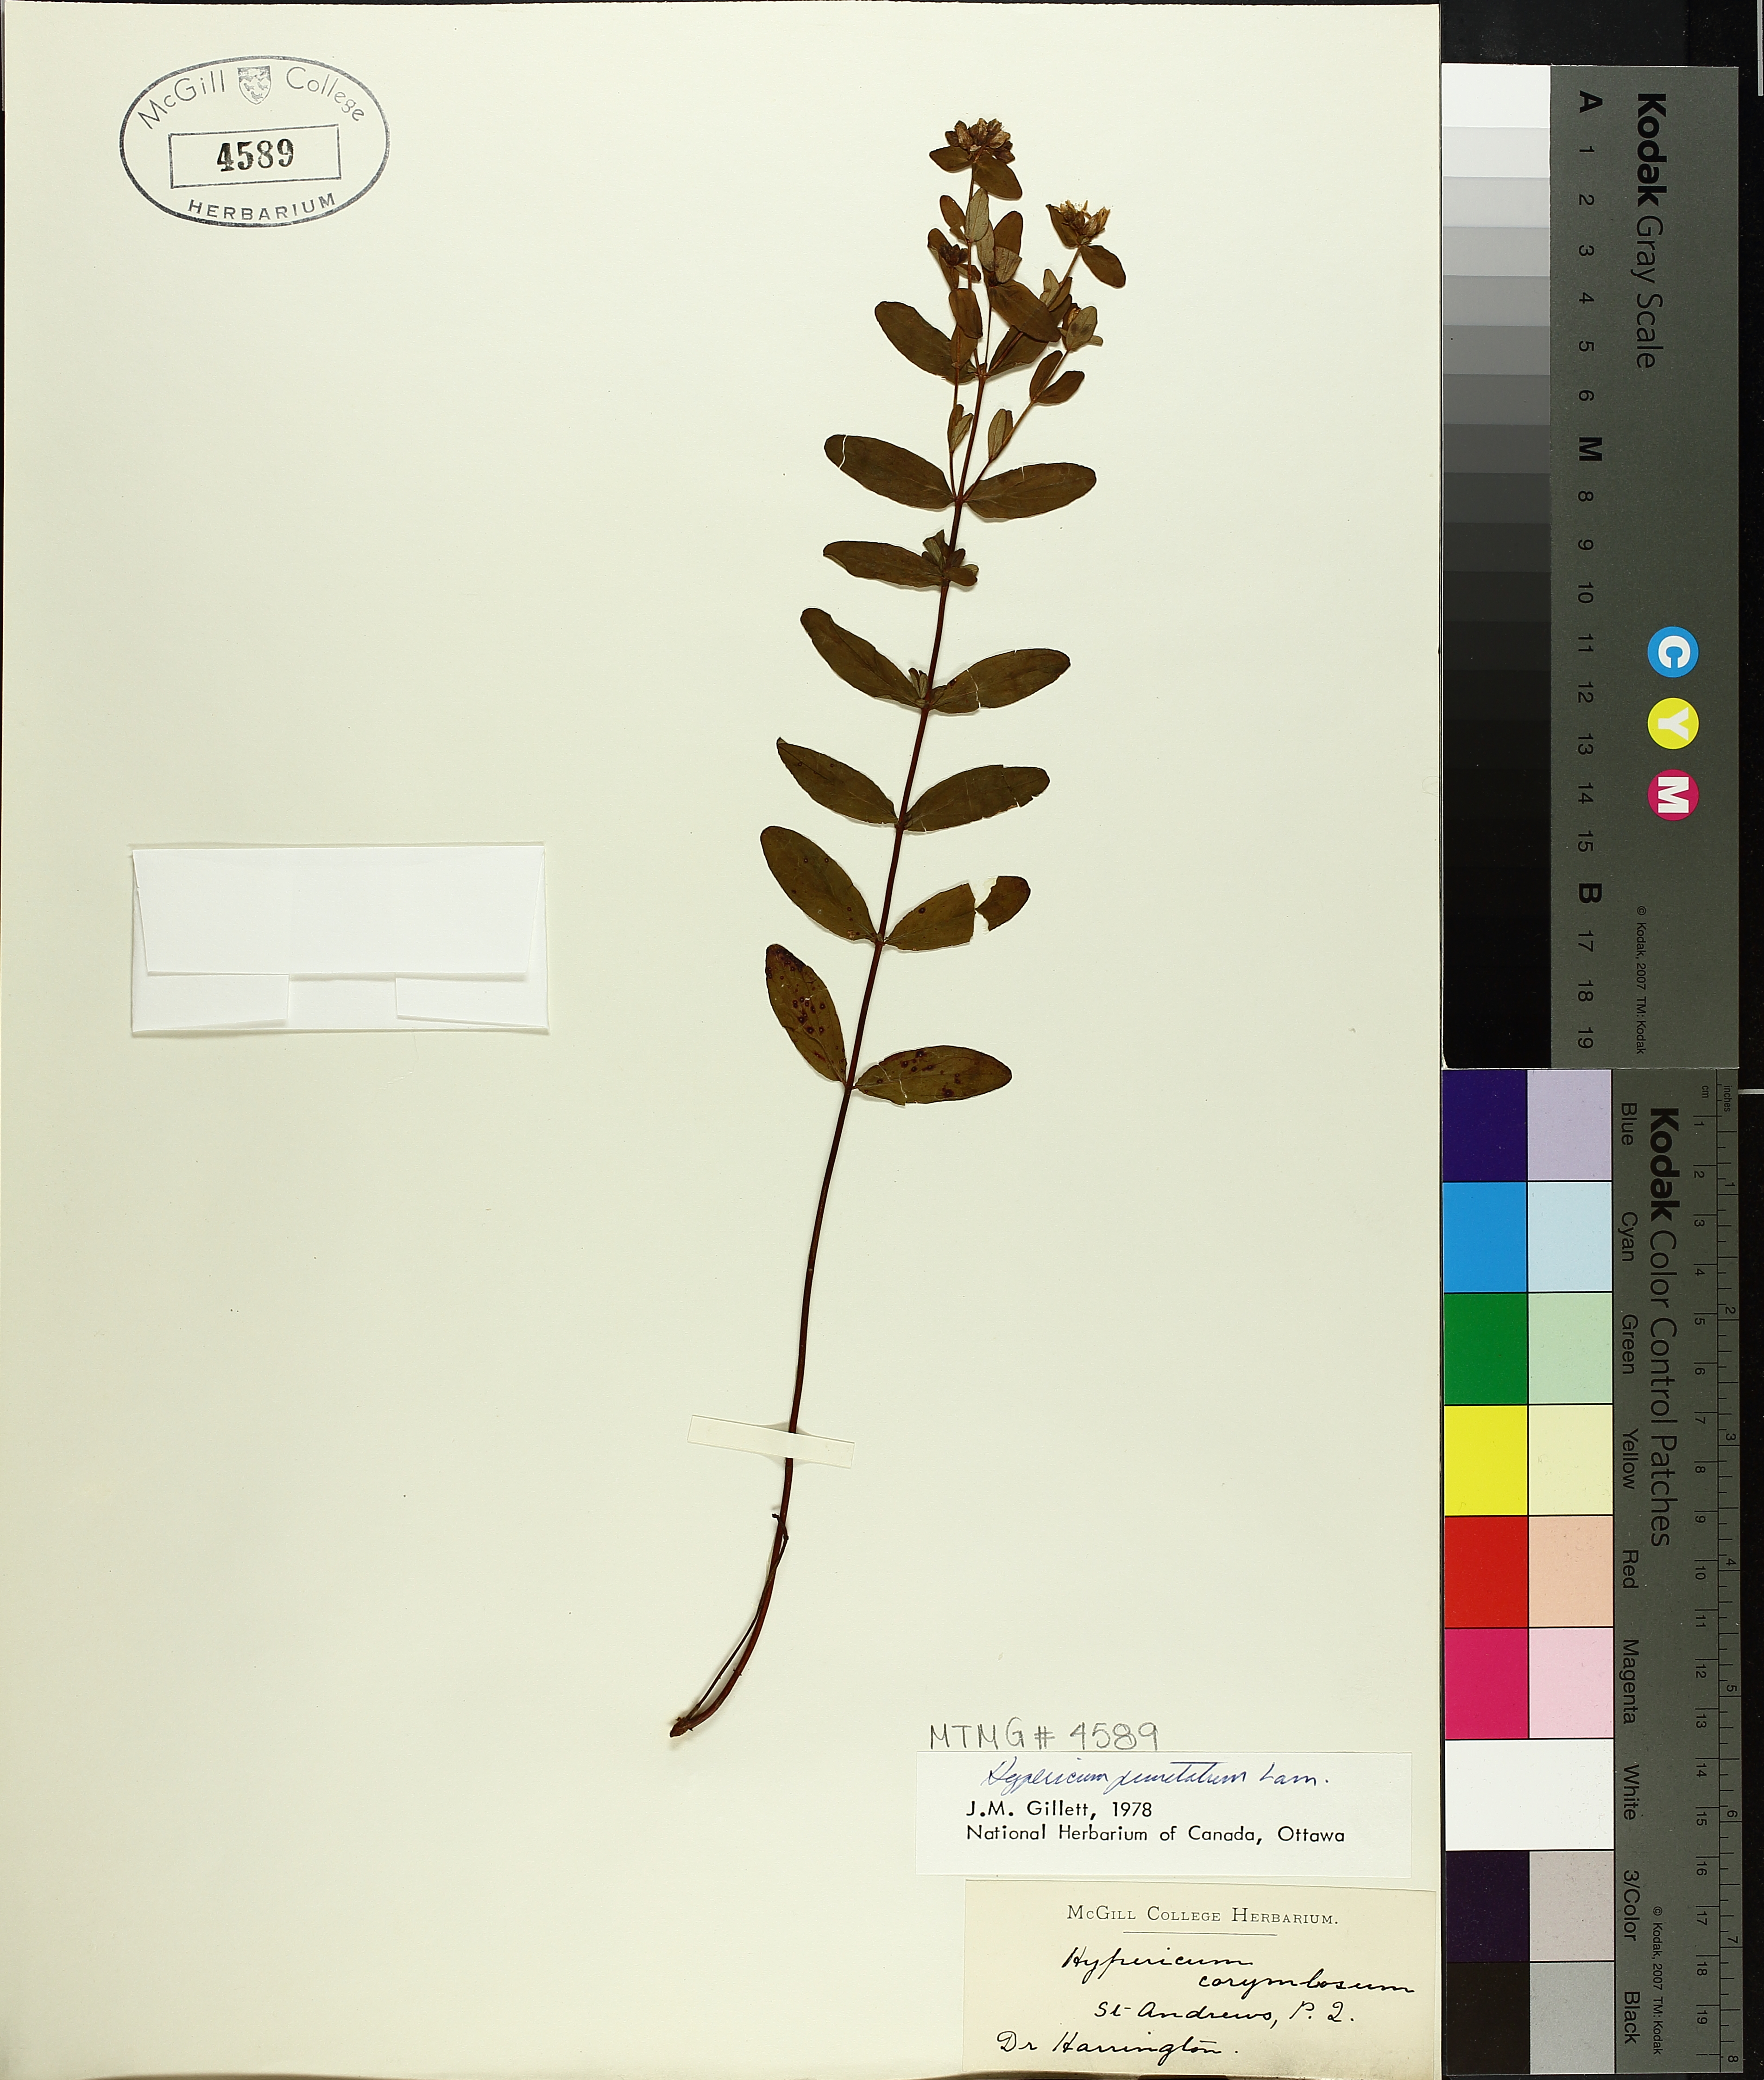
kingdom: Plantae
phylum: Tracheophyta
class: Magnoliopsida
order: Malpighiales
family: Hypericaceae
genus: Hypericum
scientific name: Hypericum punctatum
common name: Spotted st. john's-wort
